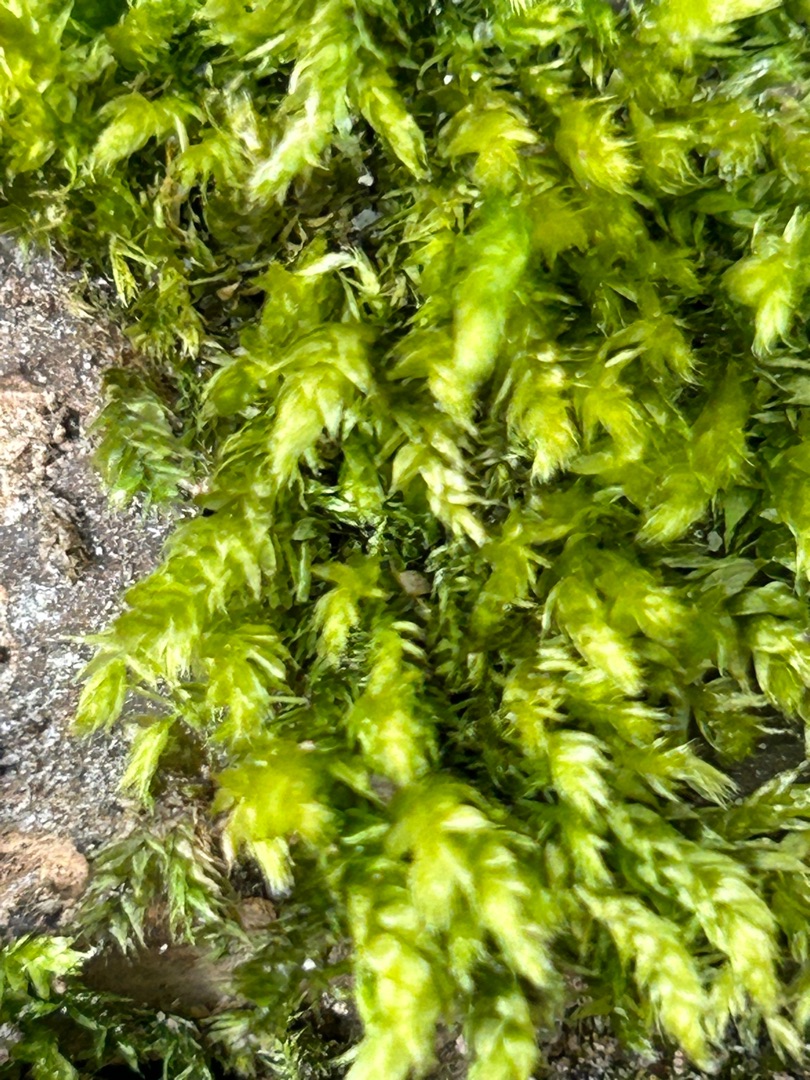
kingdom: Plantae
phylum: Bryophyta
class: Bryopsida
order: Hypnales
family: Brachytheciaceae
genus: Brachythecium
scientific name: Brachythecium rutabulum
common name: Almindelig kortkapsel
